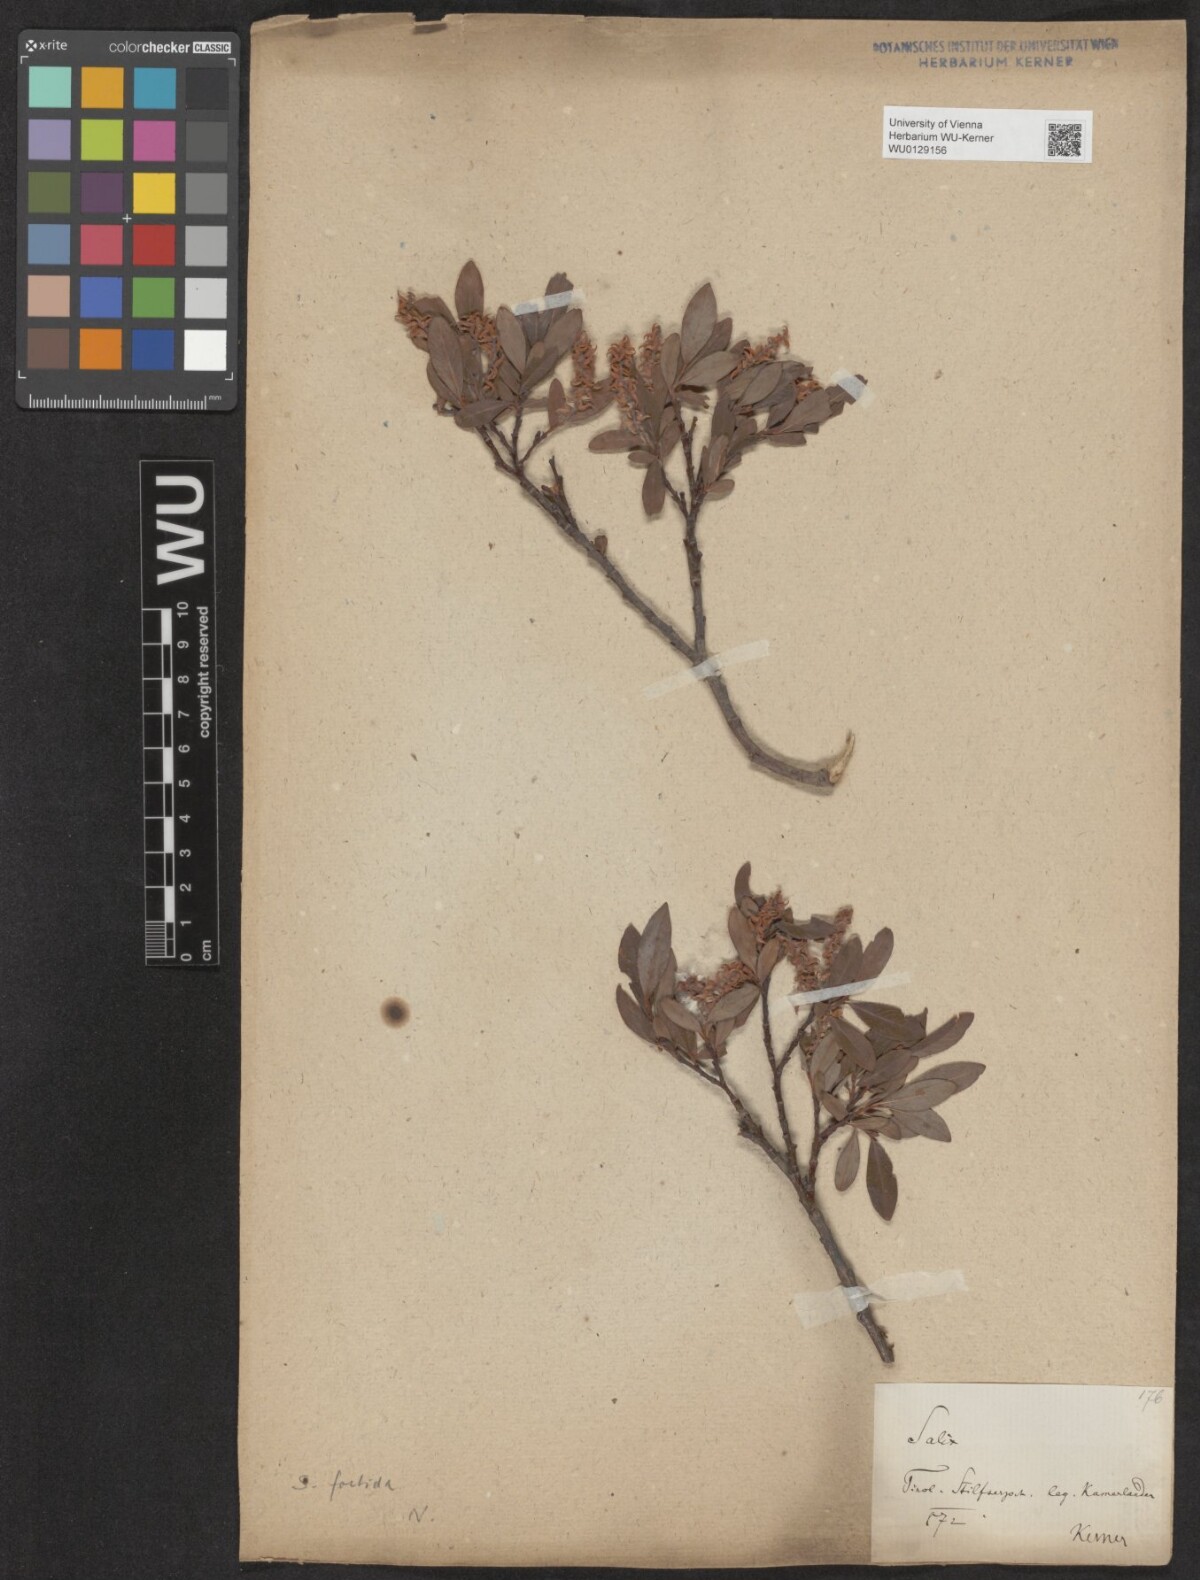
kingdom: Plantae
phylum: Tracheophyta
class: Magnoliopsida
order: Malpighiales
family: Salicaceae
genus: Salix
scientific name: Salix foetida
